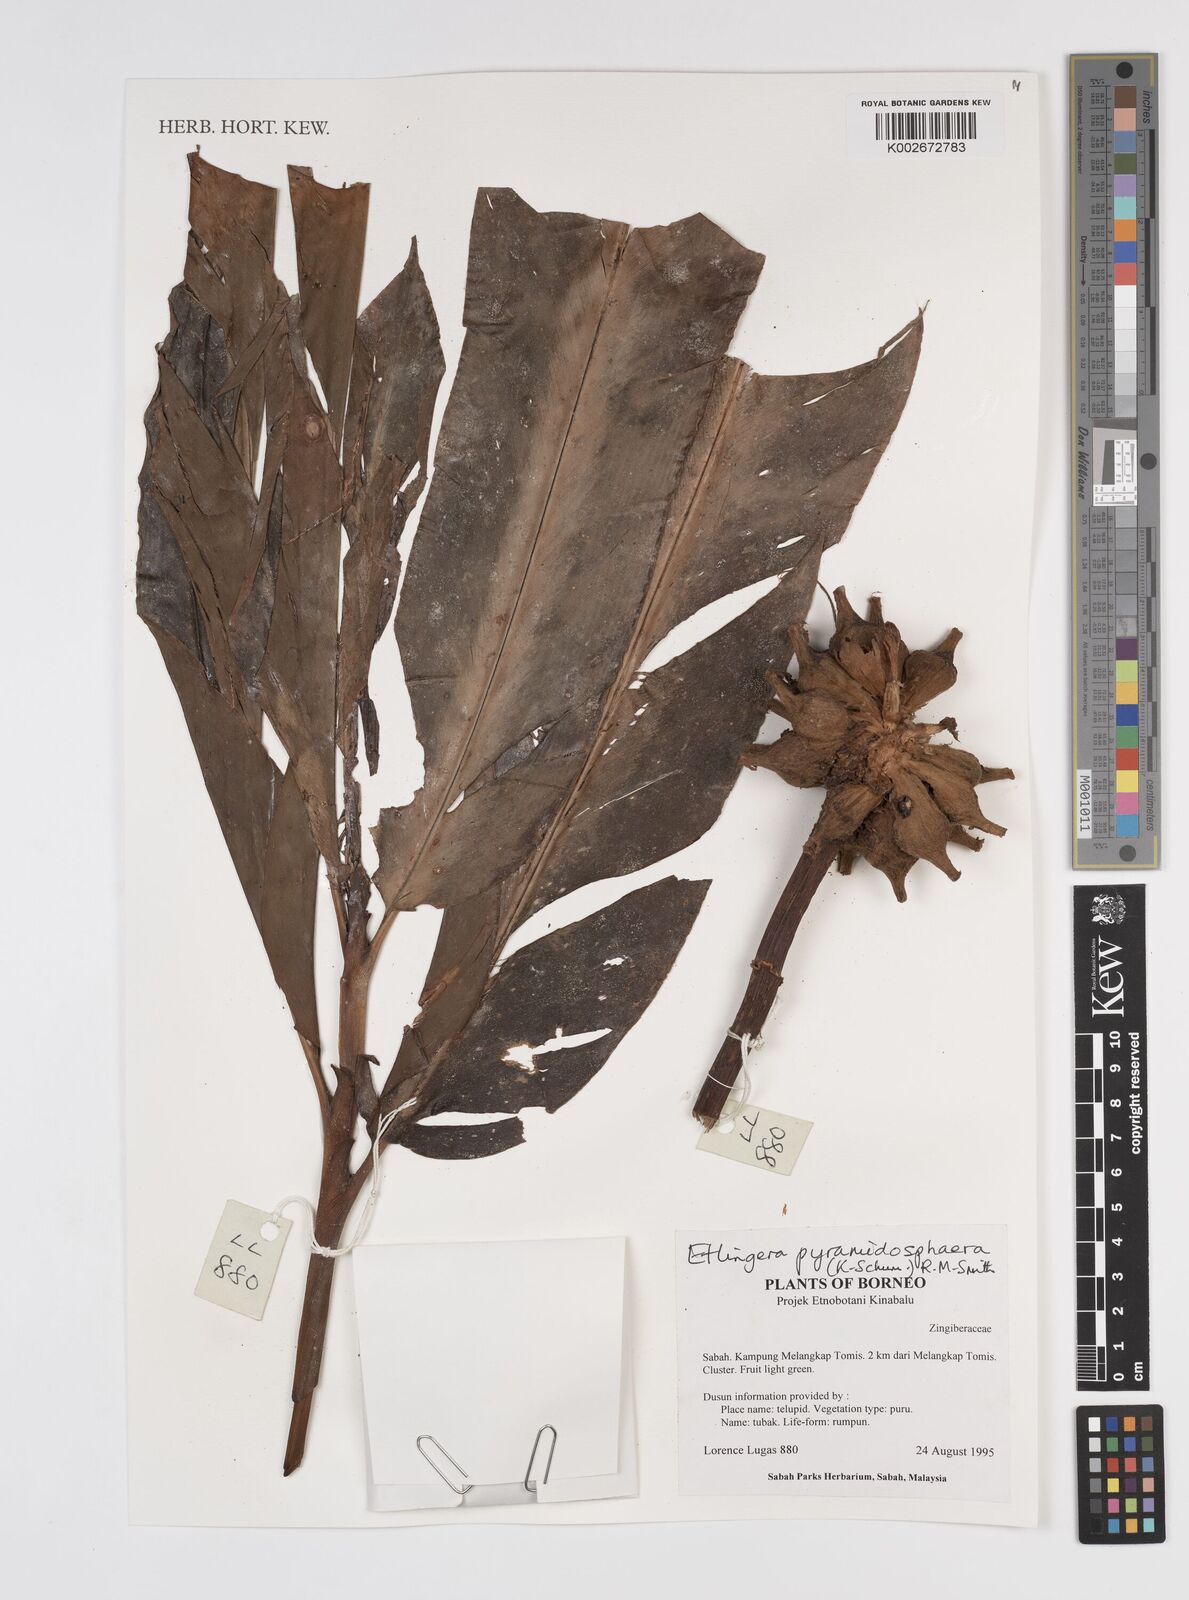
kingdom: Plantae
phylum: Tracheophyta
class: Liliopsida
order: Zingiberales
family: Zingiberaceae
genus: Etlingera
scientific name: Etlingera pyramidosphaera
